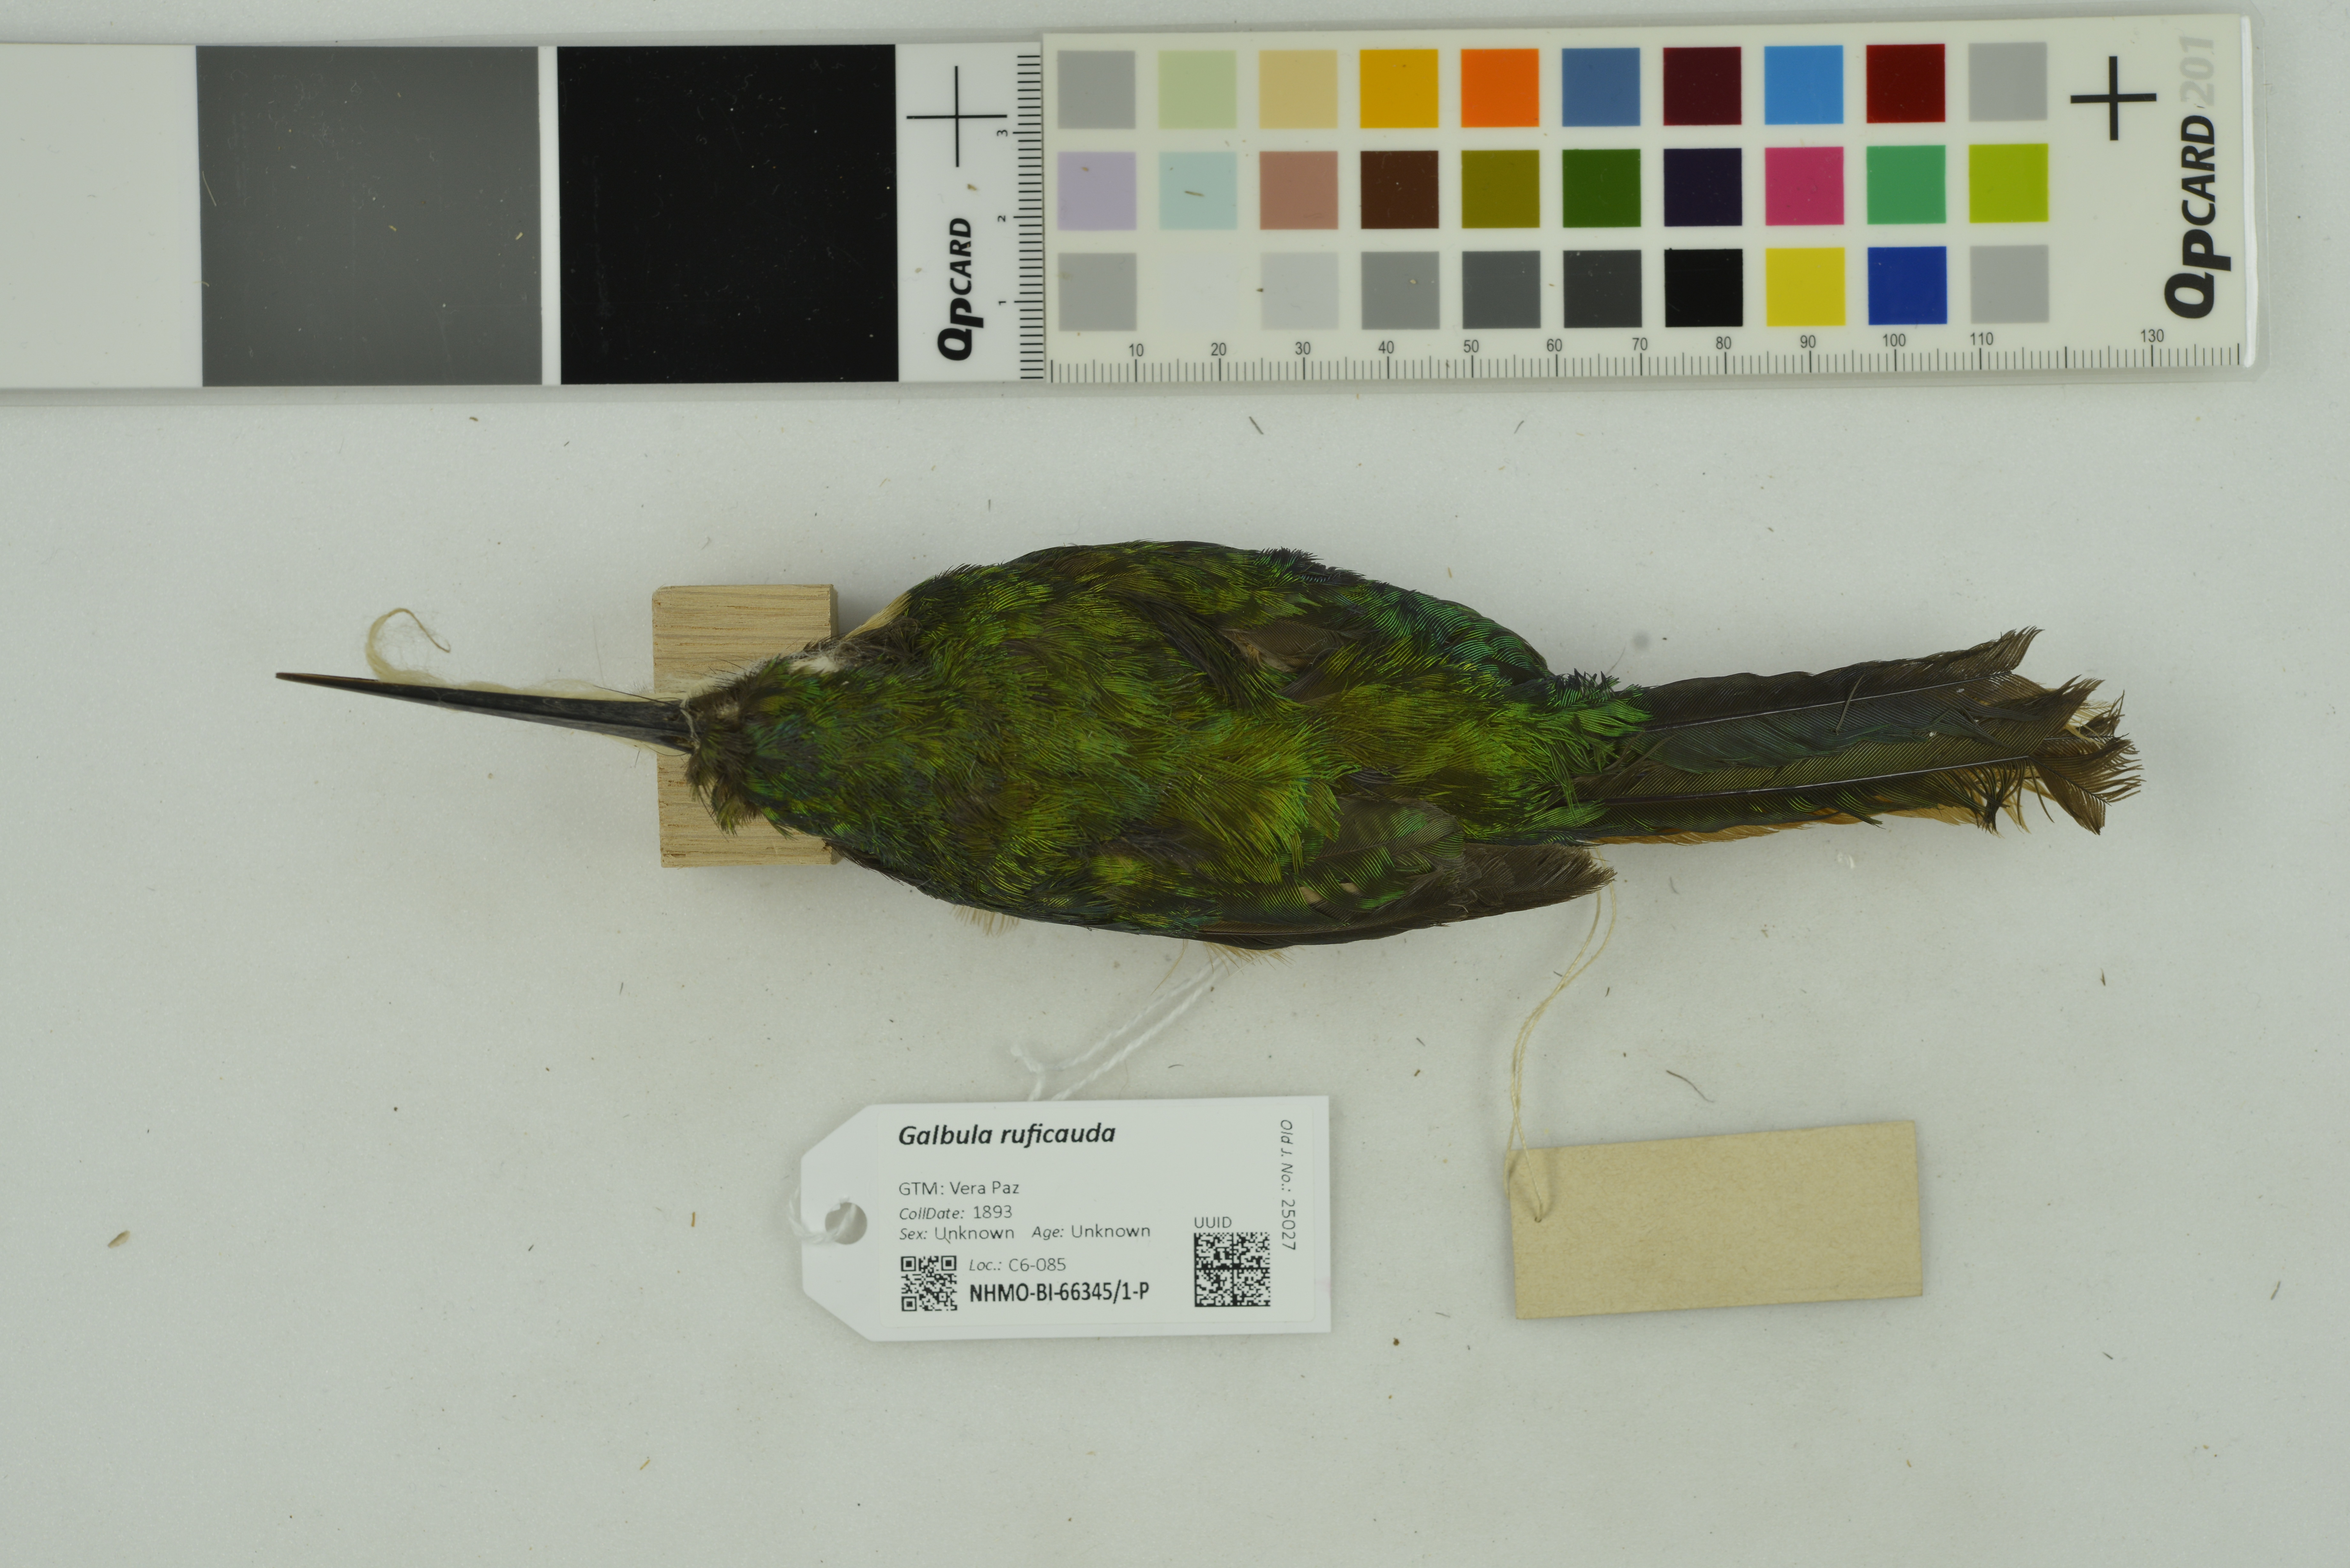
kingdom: Animalia
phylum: Chordata
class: Aves
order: Piciformes
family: Galbulidae
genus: Galbula
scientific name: Galbula ruficauda
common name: Rufous-tailed jacamar
